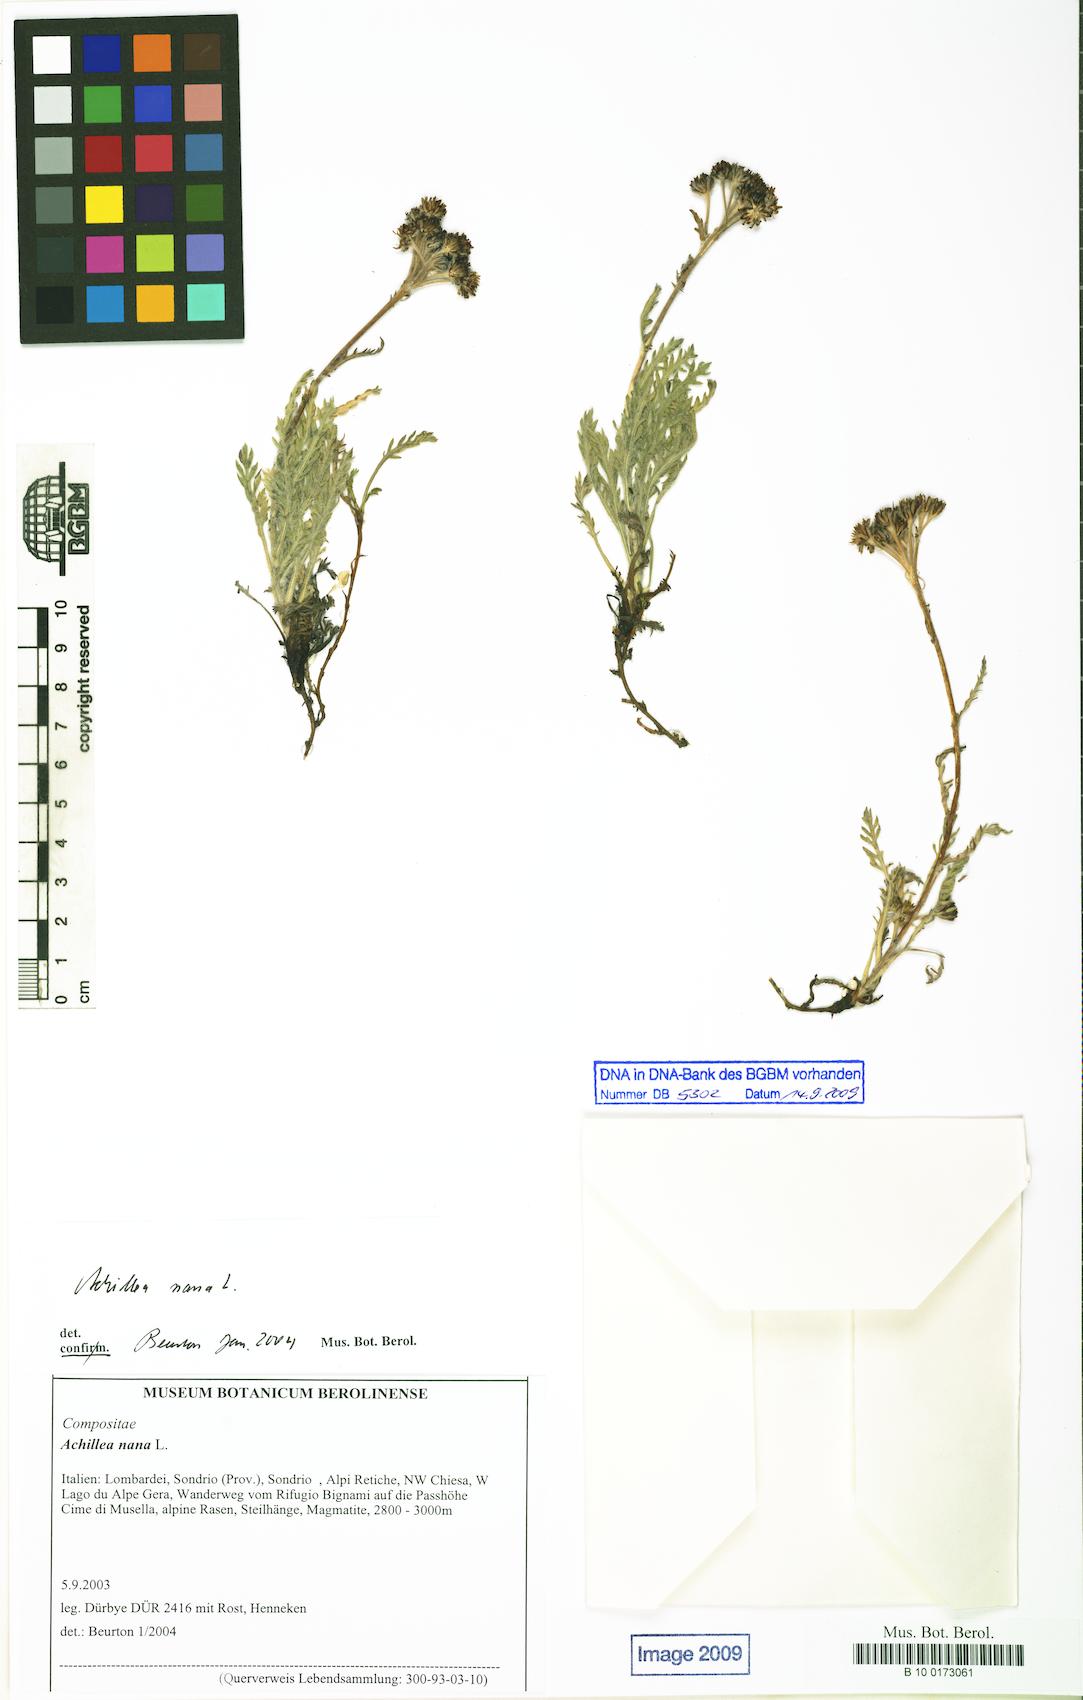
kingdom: Plantae
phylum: Tracheophyta
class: Magnoliopsida
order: Asterales
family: Asteraceae
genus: Achillea
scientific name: Achillea nana
